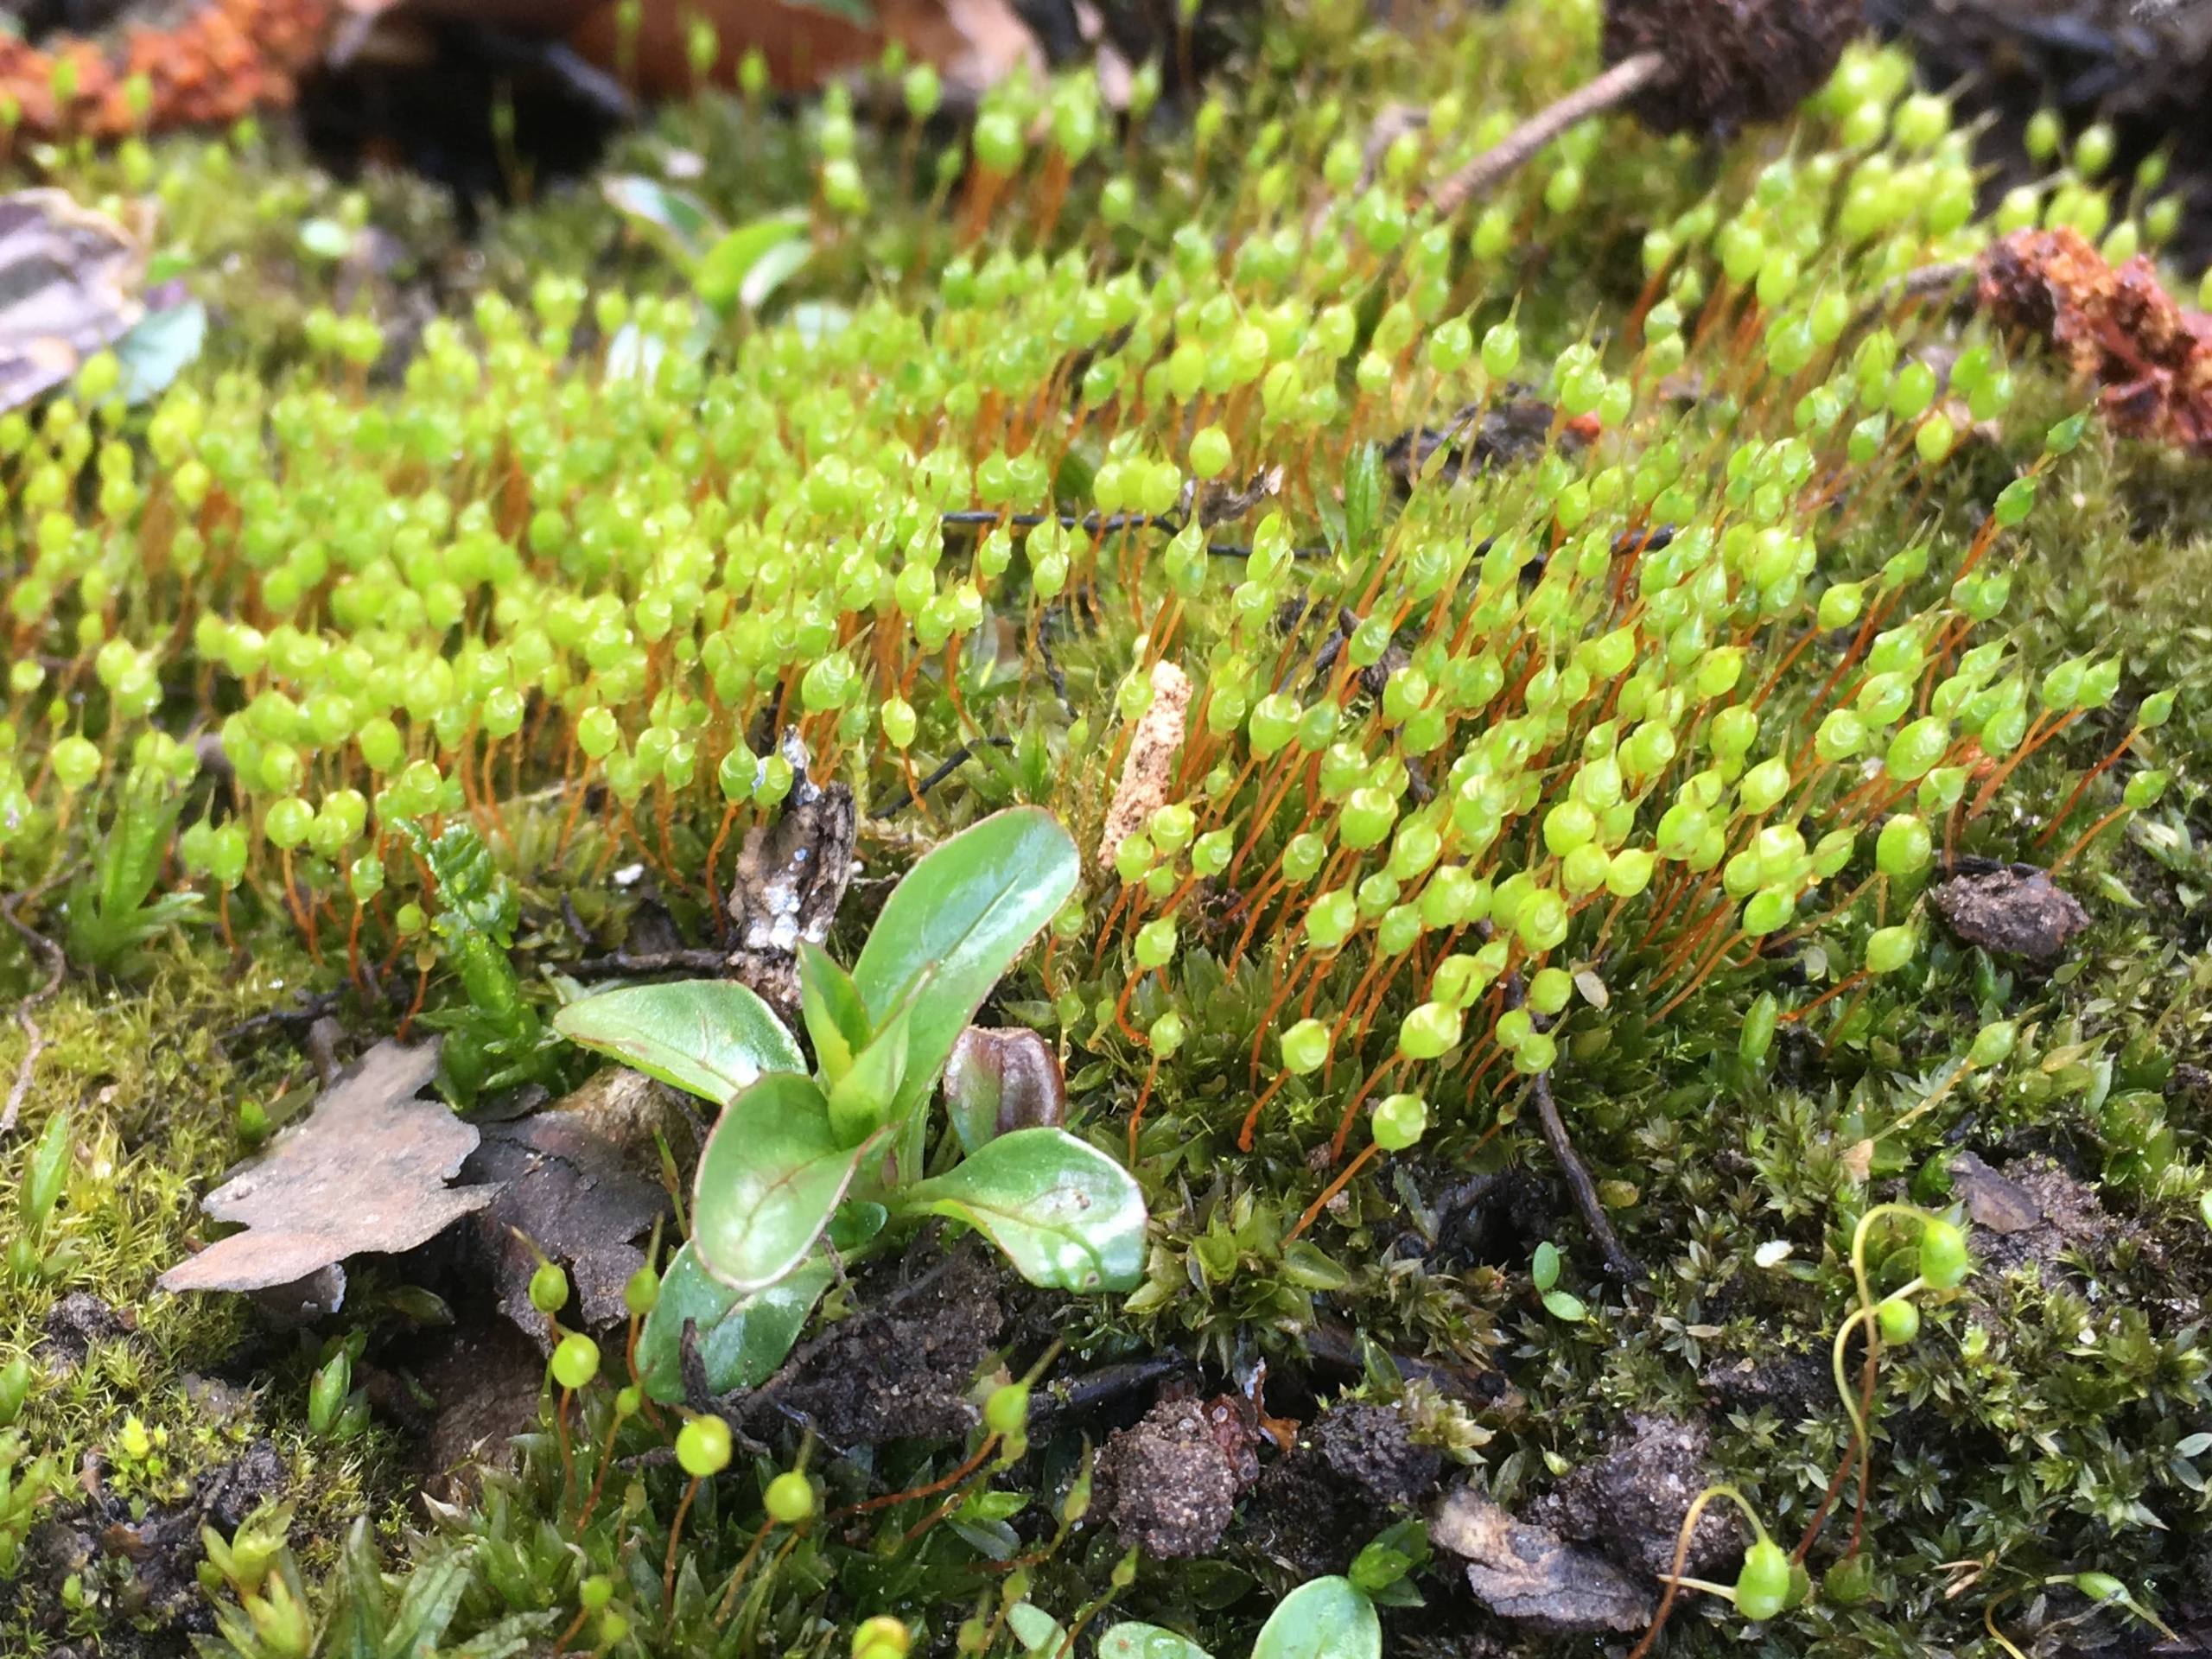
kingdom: Plantae
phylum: Bryophyta
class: Bryopsida
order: Funariales
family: Funariaceae
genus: Physcomitrium
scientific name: Physcomitrium pyriforme
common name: Almindelig pærekapsel
